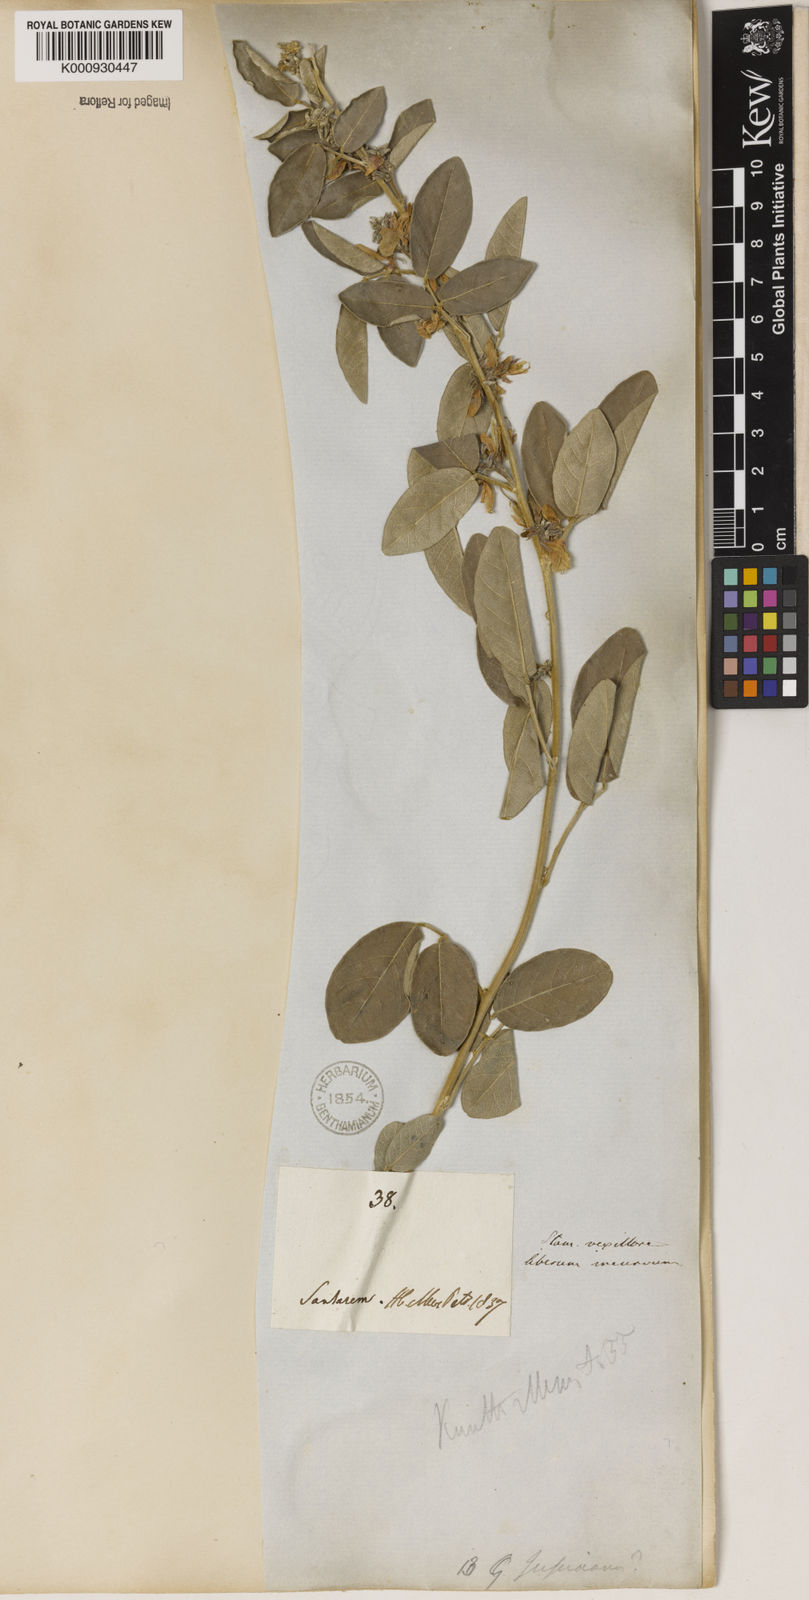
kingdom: Plantae
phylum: Tracheophyta
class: Magnoliopsida
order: Fabales
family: Fabaceae
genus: Galactia
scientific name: Galactia jussiaeana
